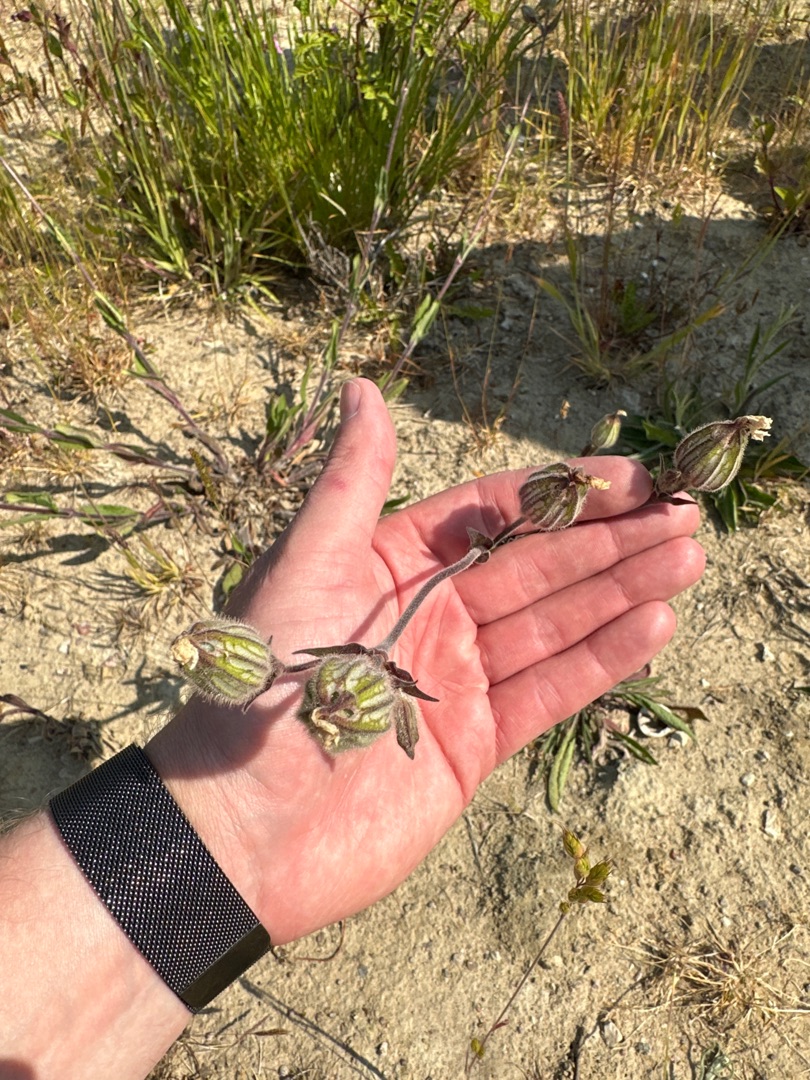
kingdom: Plantae
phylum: Tracheophyta
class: Magnoliopsida
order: Caryophyllales
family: Caryophyllaceae
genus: Silene
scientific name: Silene latifolia
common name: Aftenpragtstjerne
